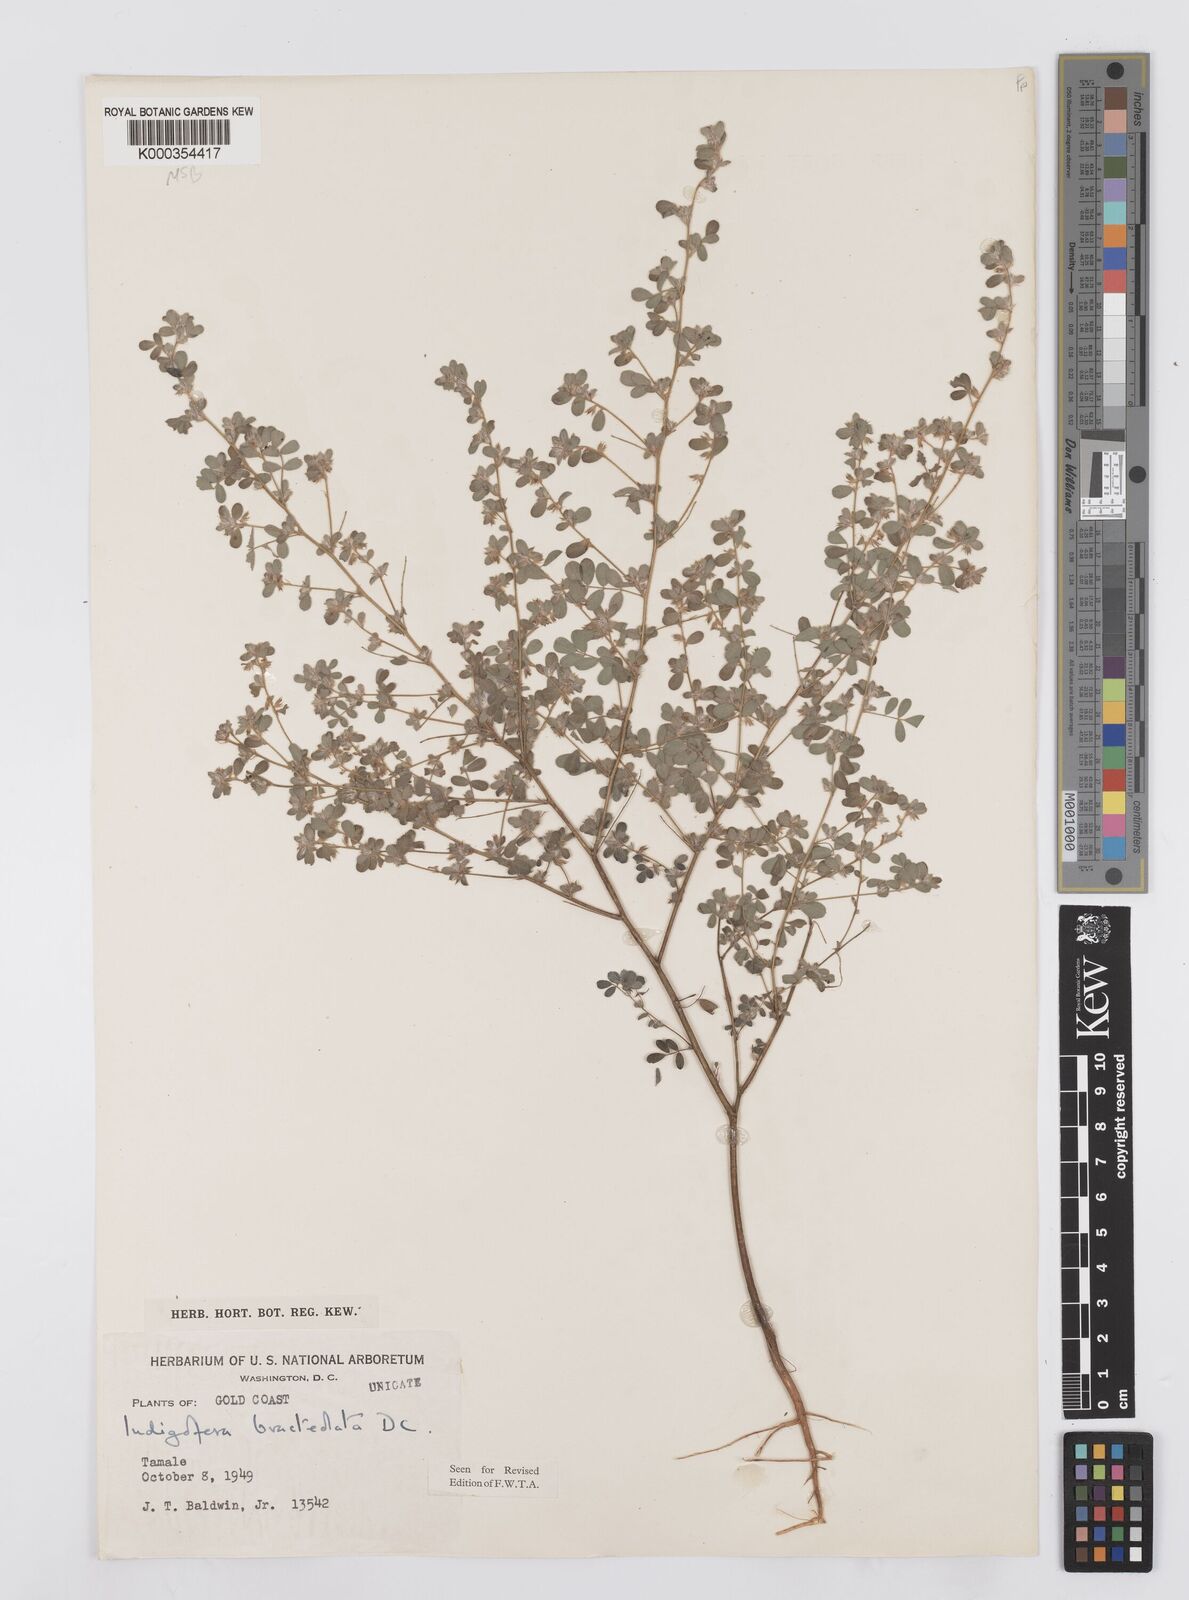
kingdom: Plantae
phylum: Tracheophyta
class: Magnoliopsida
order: Fabales
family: Fabaceae
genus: Indigofera
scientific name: Indigofera bracteolata
